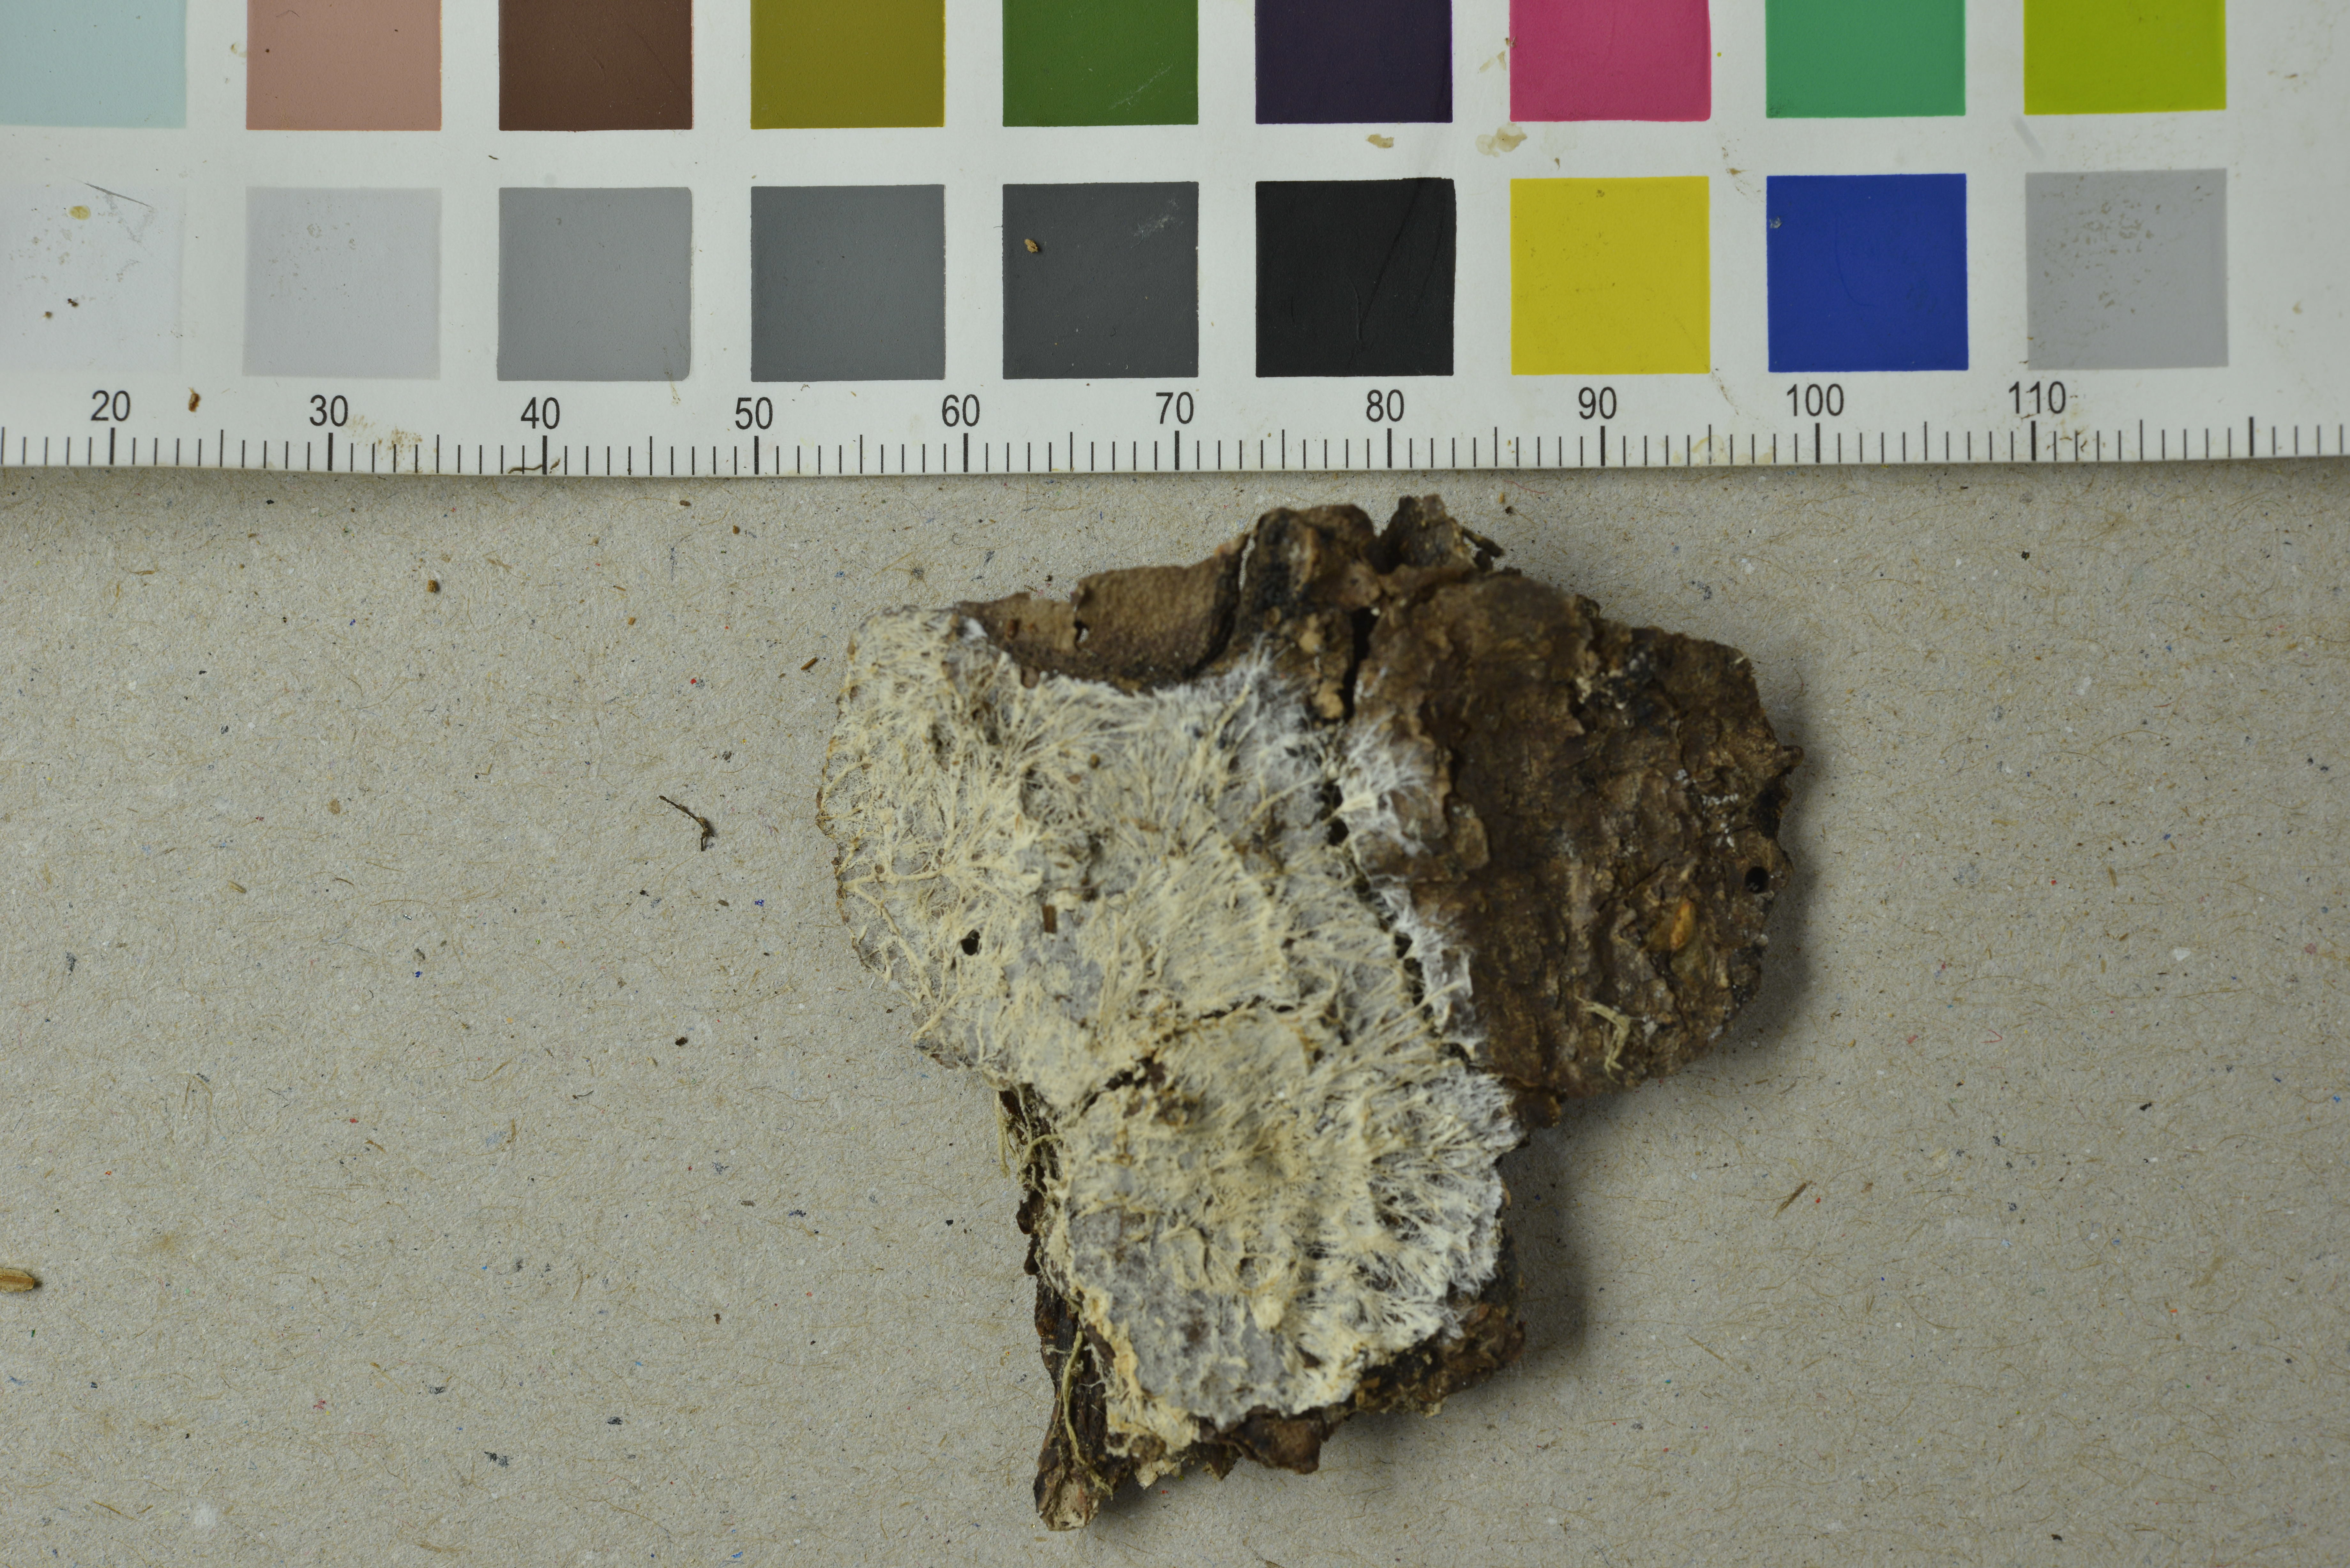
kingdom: Fungi
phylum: Basidiomycota
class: Agaricomycetes
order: Russulales
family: Xenasmataceae
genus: Xenasmatella
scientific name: Xenasmatella christiansenii
